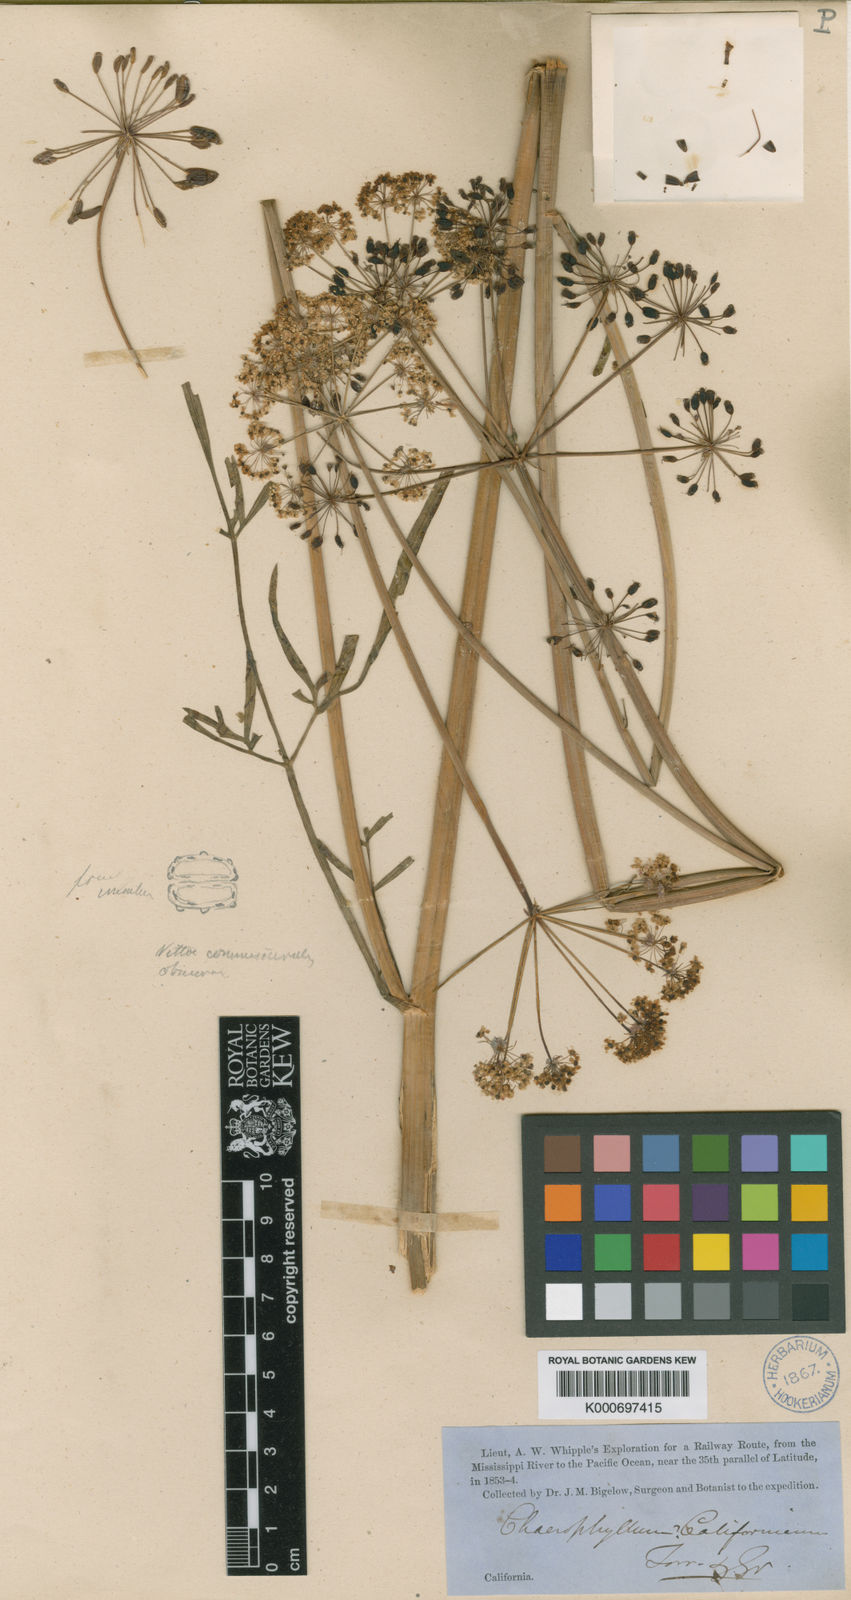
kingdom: Plantae
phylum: Tracheophyta
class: Magnoliopsida
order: Apiales
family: Apiaceae
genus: Perideridia
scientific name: Perideridia californica
